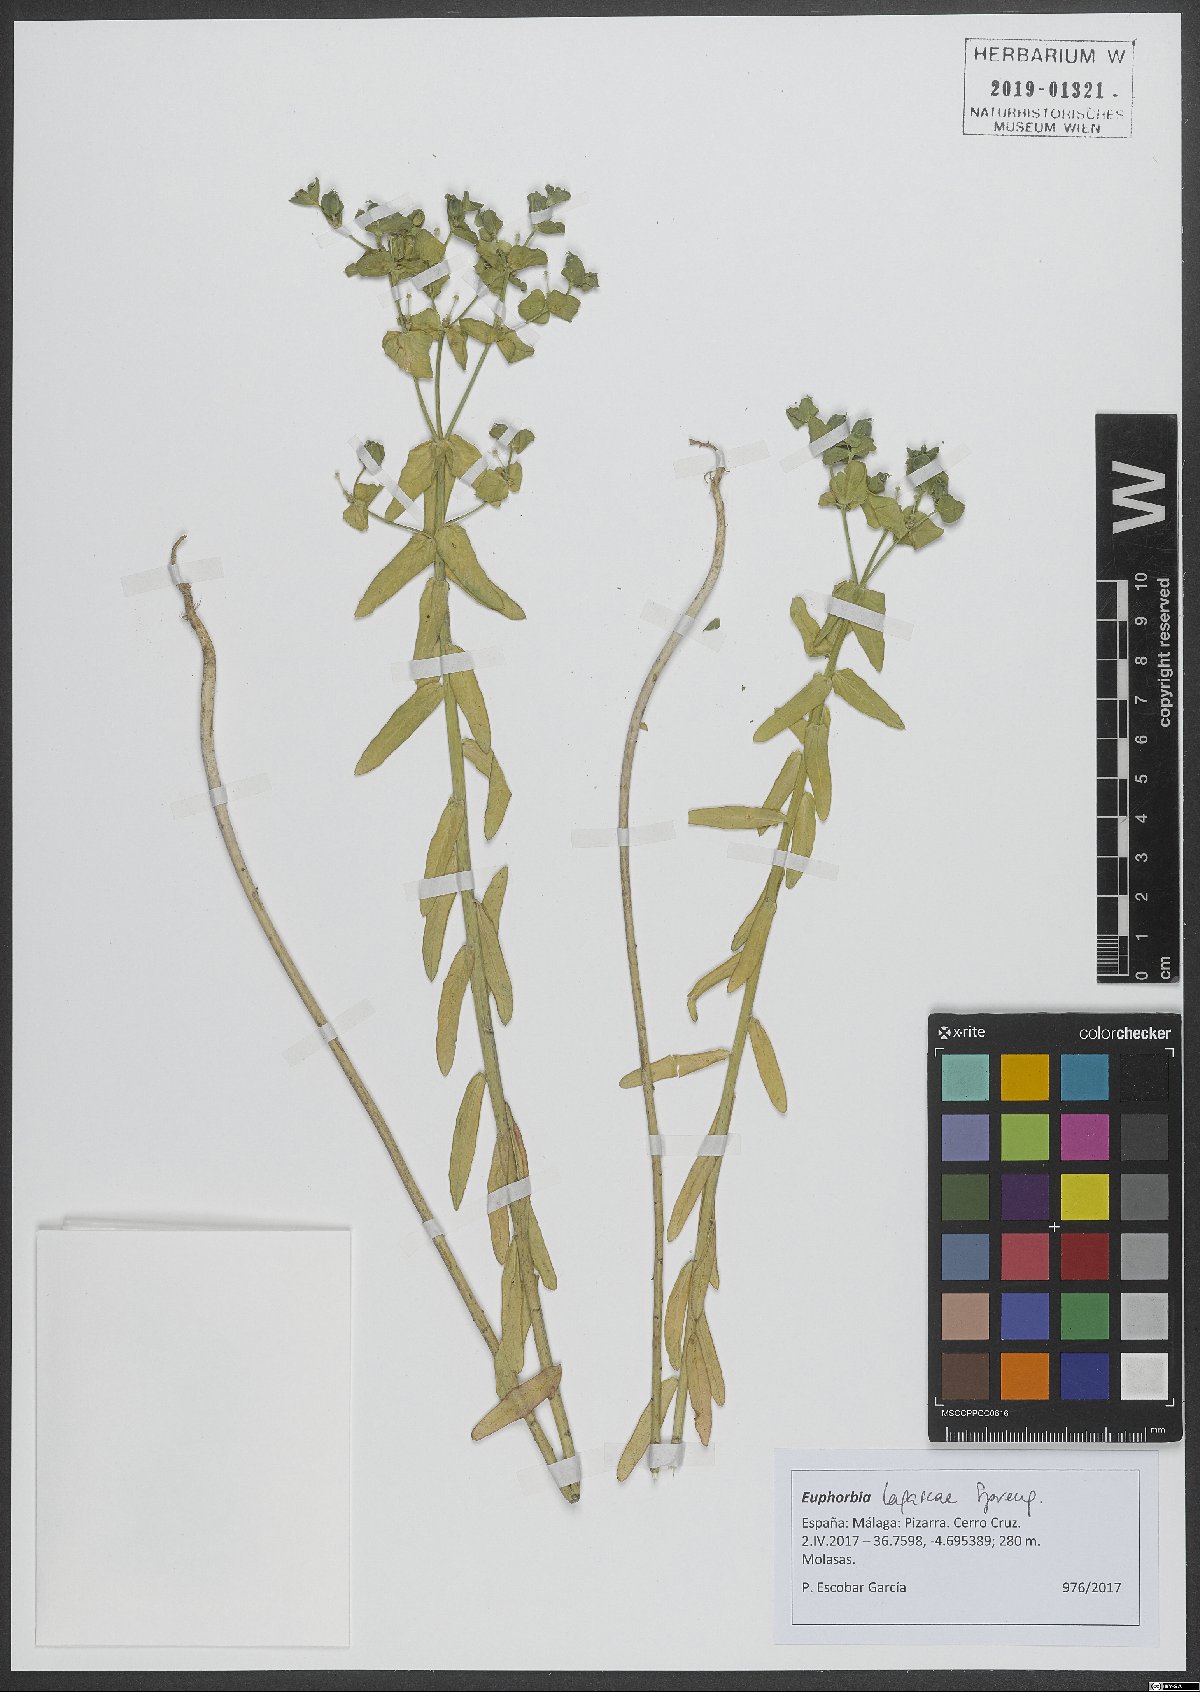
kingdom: Plantae
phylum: Tracheophyta
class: Magnoliopsida
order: Malpighiales
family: Euphorbiaceae
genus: Euphorbia
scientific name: Euphorbia lagascae
